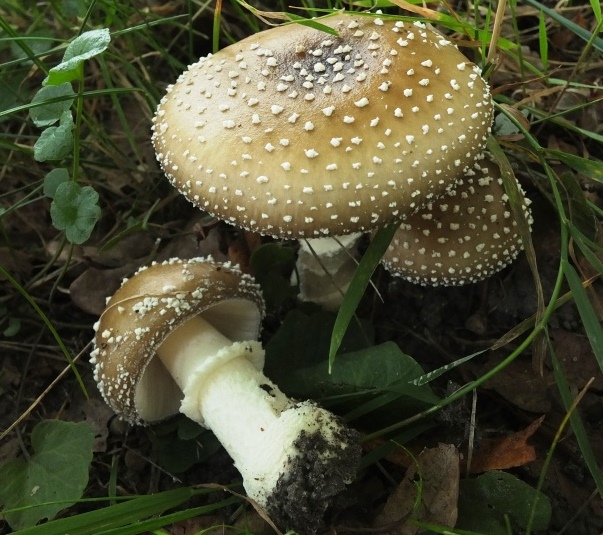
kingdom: Fungi
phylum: Basidiomycota
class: Agaricomycetes
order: Agaricales
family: Amanitaceae
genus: Amanita
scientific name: Amanita pantherina
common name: panter-fluesvamp
